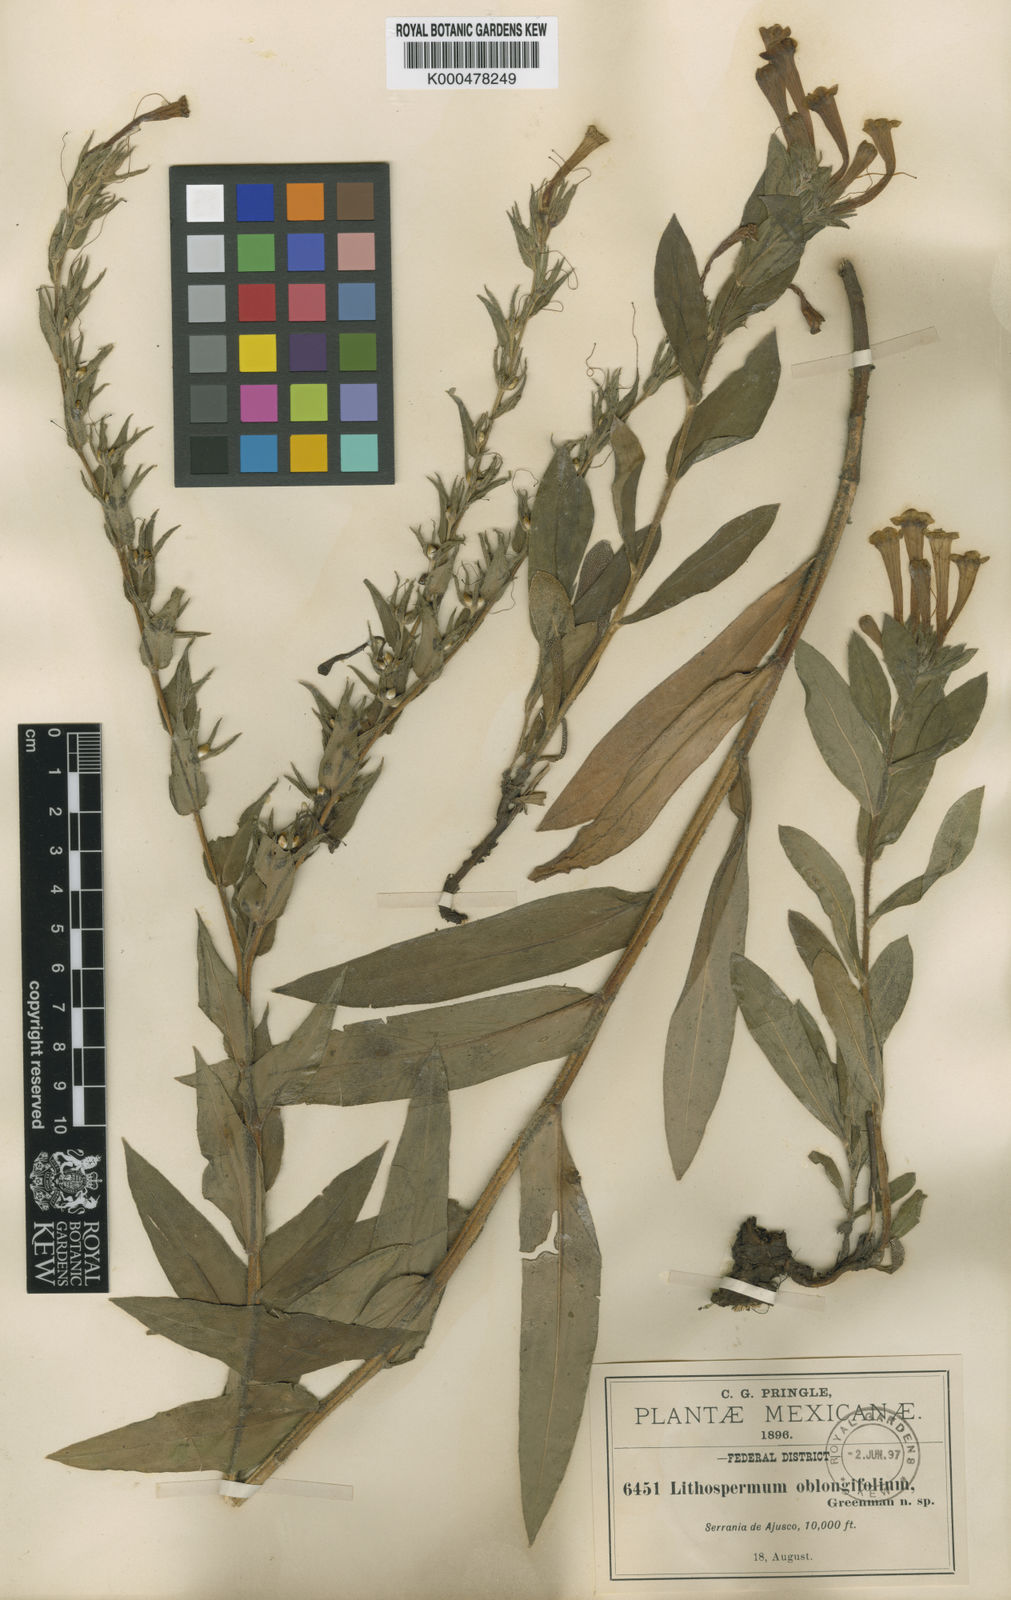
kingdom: Plantae
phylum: Tracheophyta
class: Magnoliopsida
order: Boraginales
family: Boraginaceae
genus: Lithospermum
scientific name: Lithospermum oblongifolium
